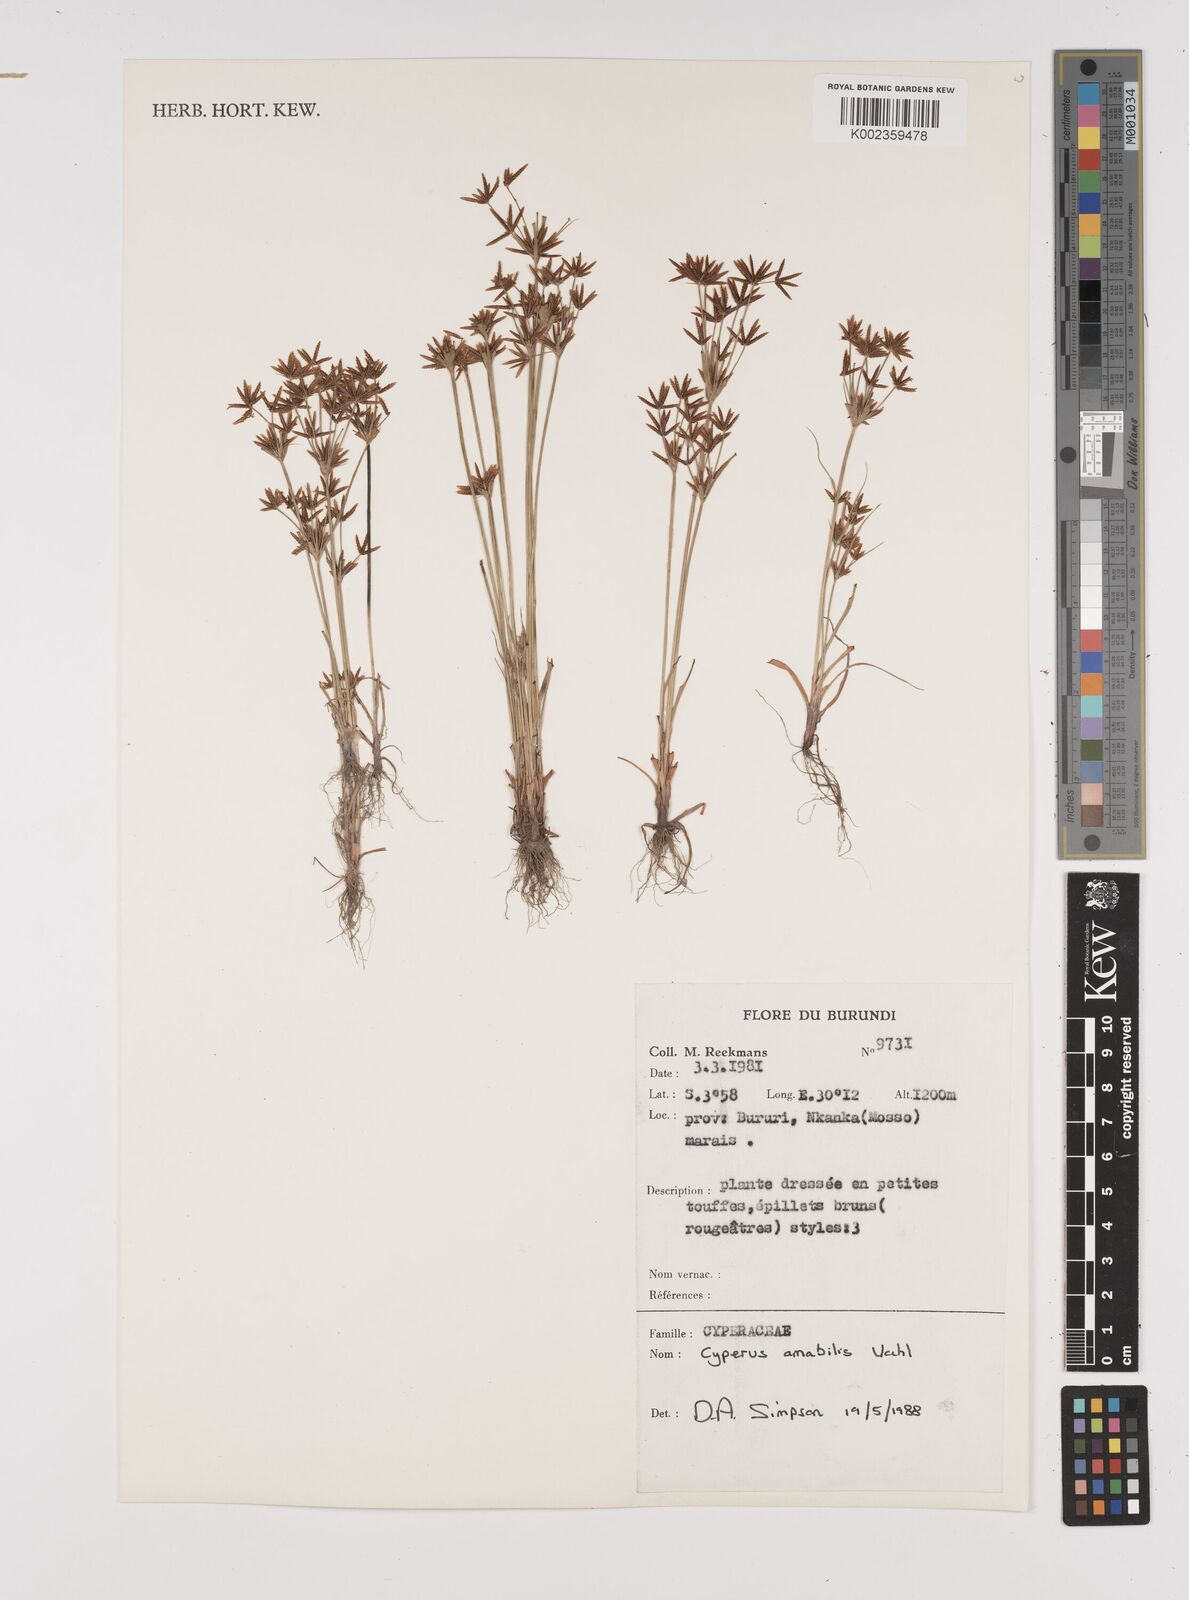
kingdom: Plantae
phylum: Tracheophyta
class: Liliopsida
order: Poales
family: Cyperaceae
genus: Cyperus
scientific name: Cyperus amabilis
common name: Foothill flat sedge
